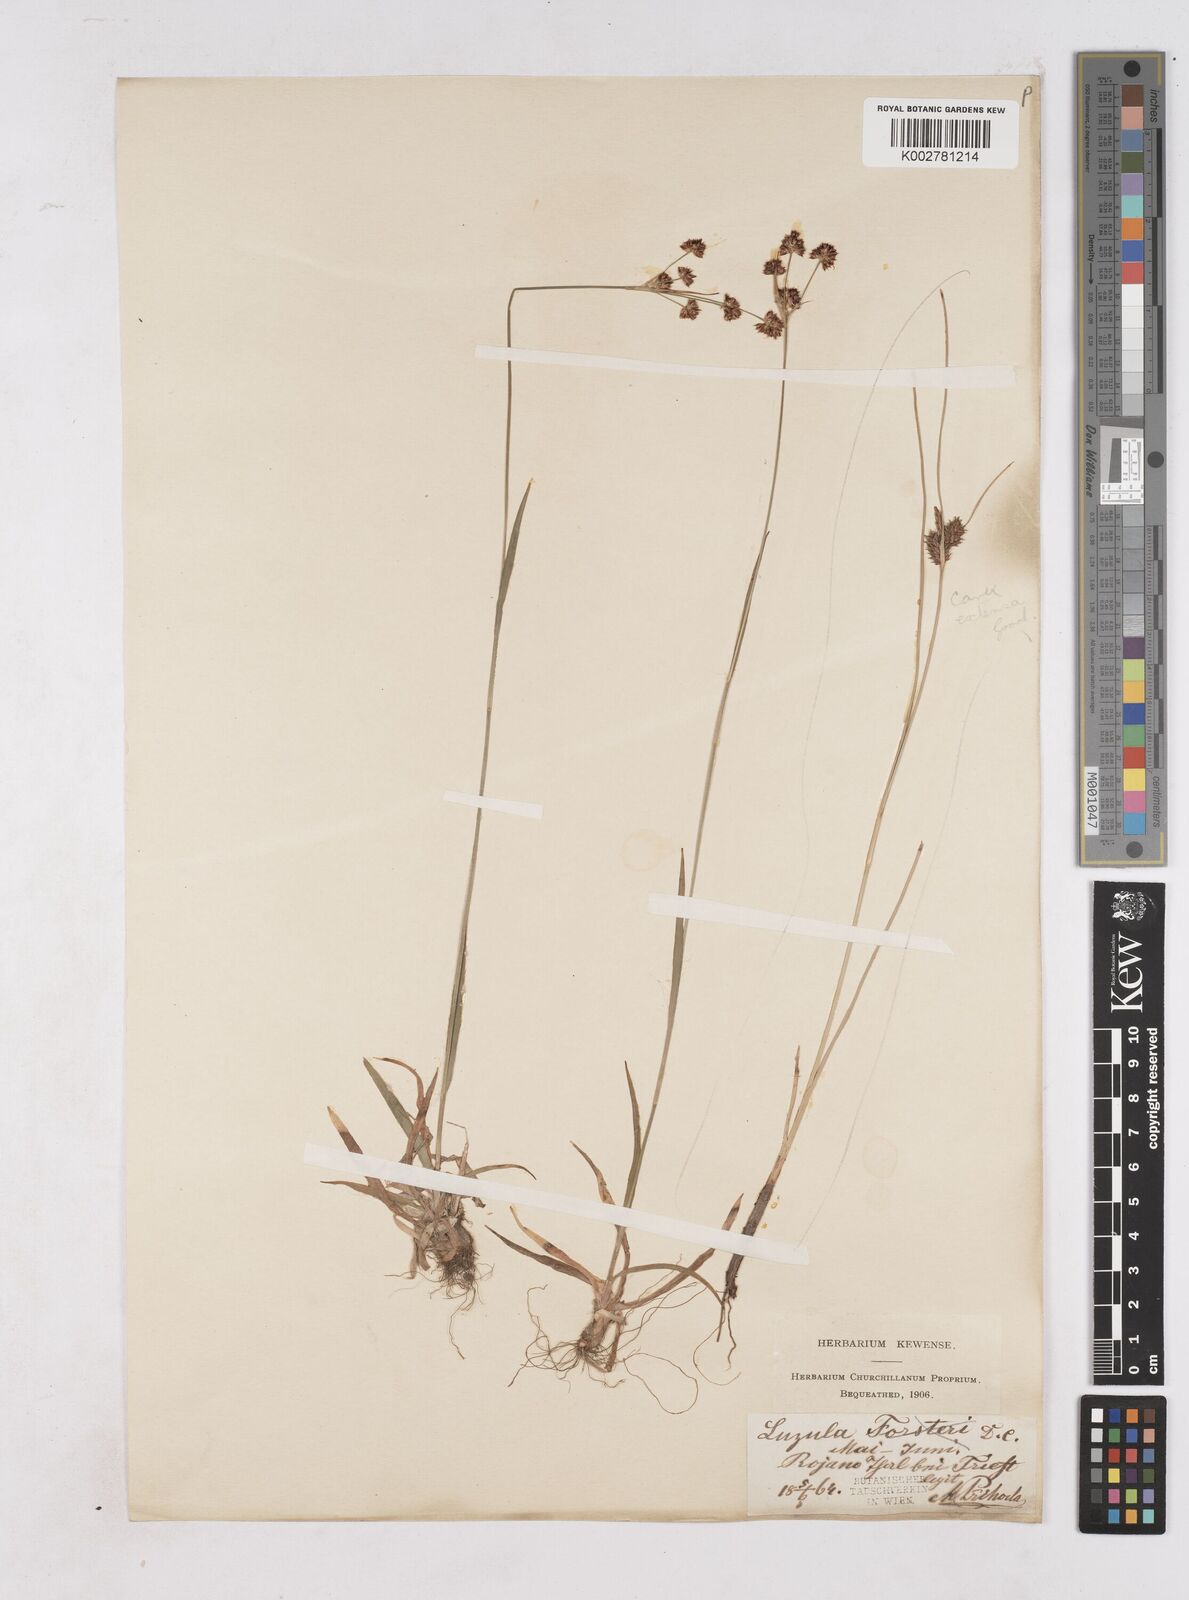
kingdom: Plantae
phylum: Tracheophyta
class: Liliopsida
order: Poales
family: Juncaceae
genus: Luzula
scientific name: Luzula
